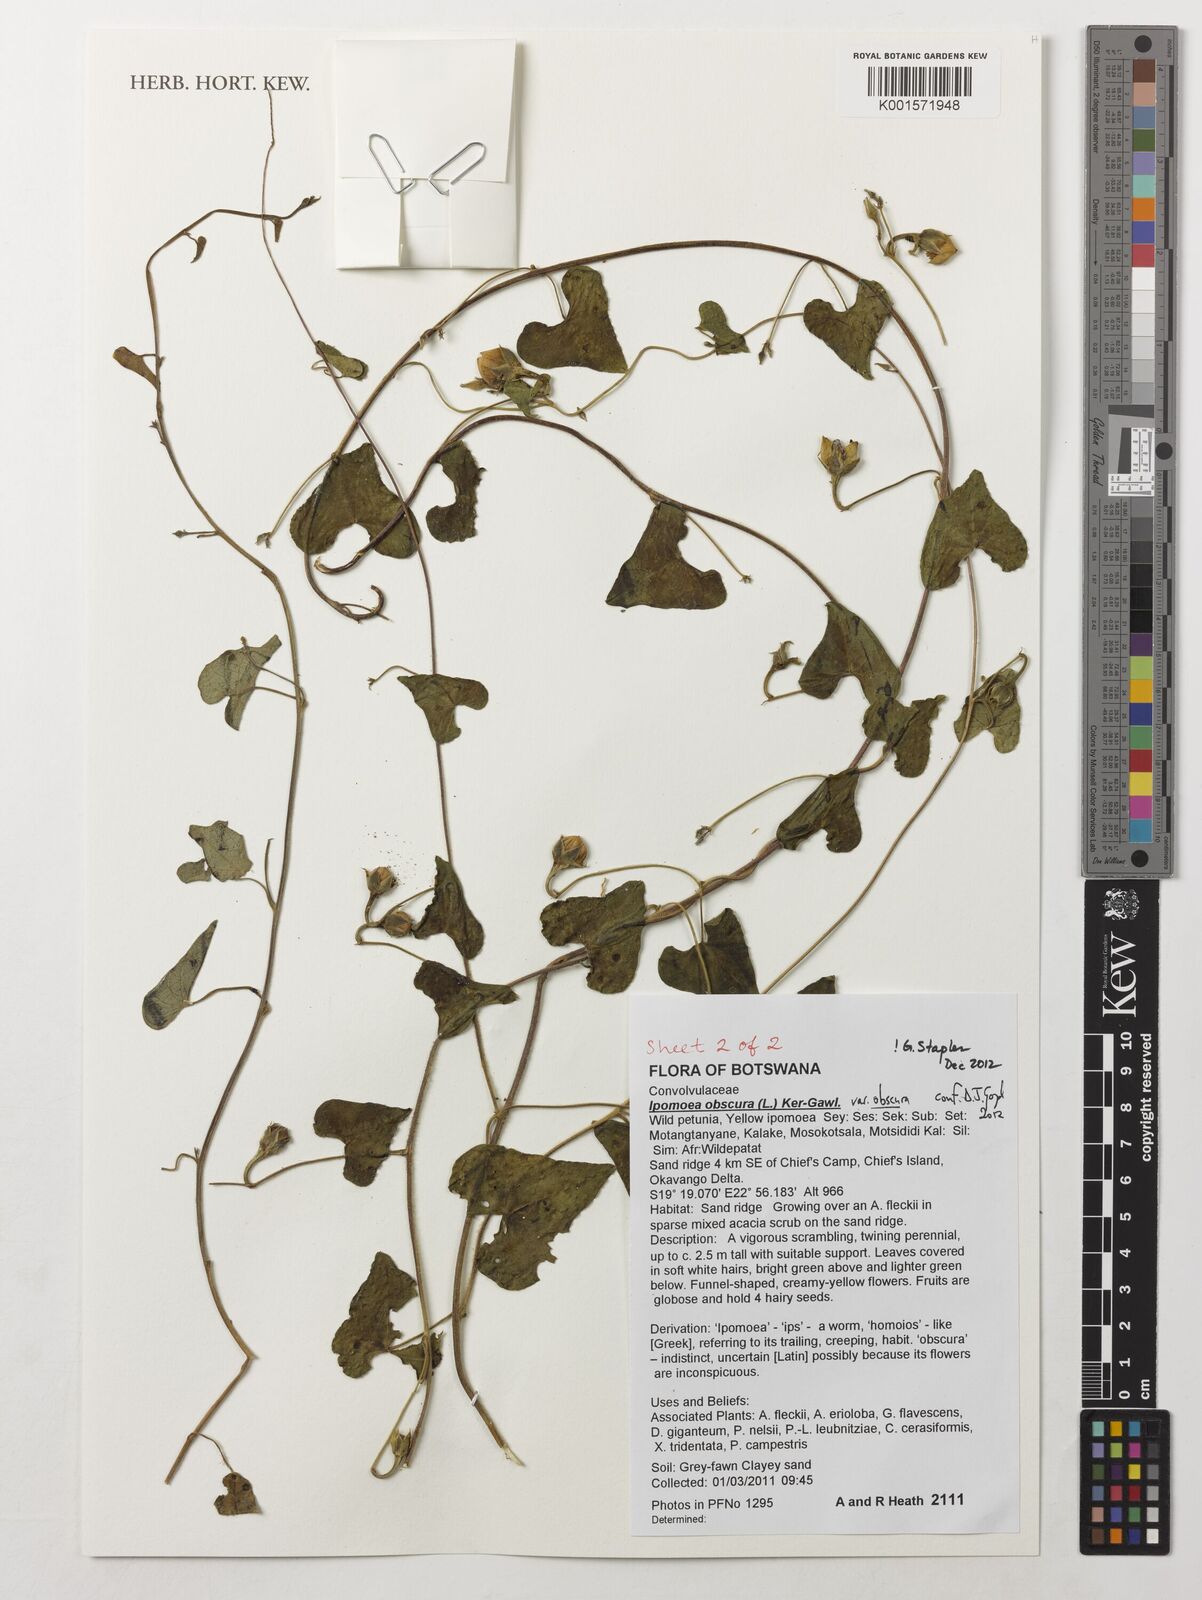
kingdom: Plantae
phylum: Tracheophyta
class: Magnoliopsida
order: Solanales
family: Convolvulaceae
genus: Ipomoea
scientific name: Ipomoea obscura
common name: Obscure morning-glory
